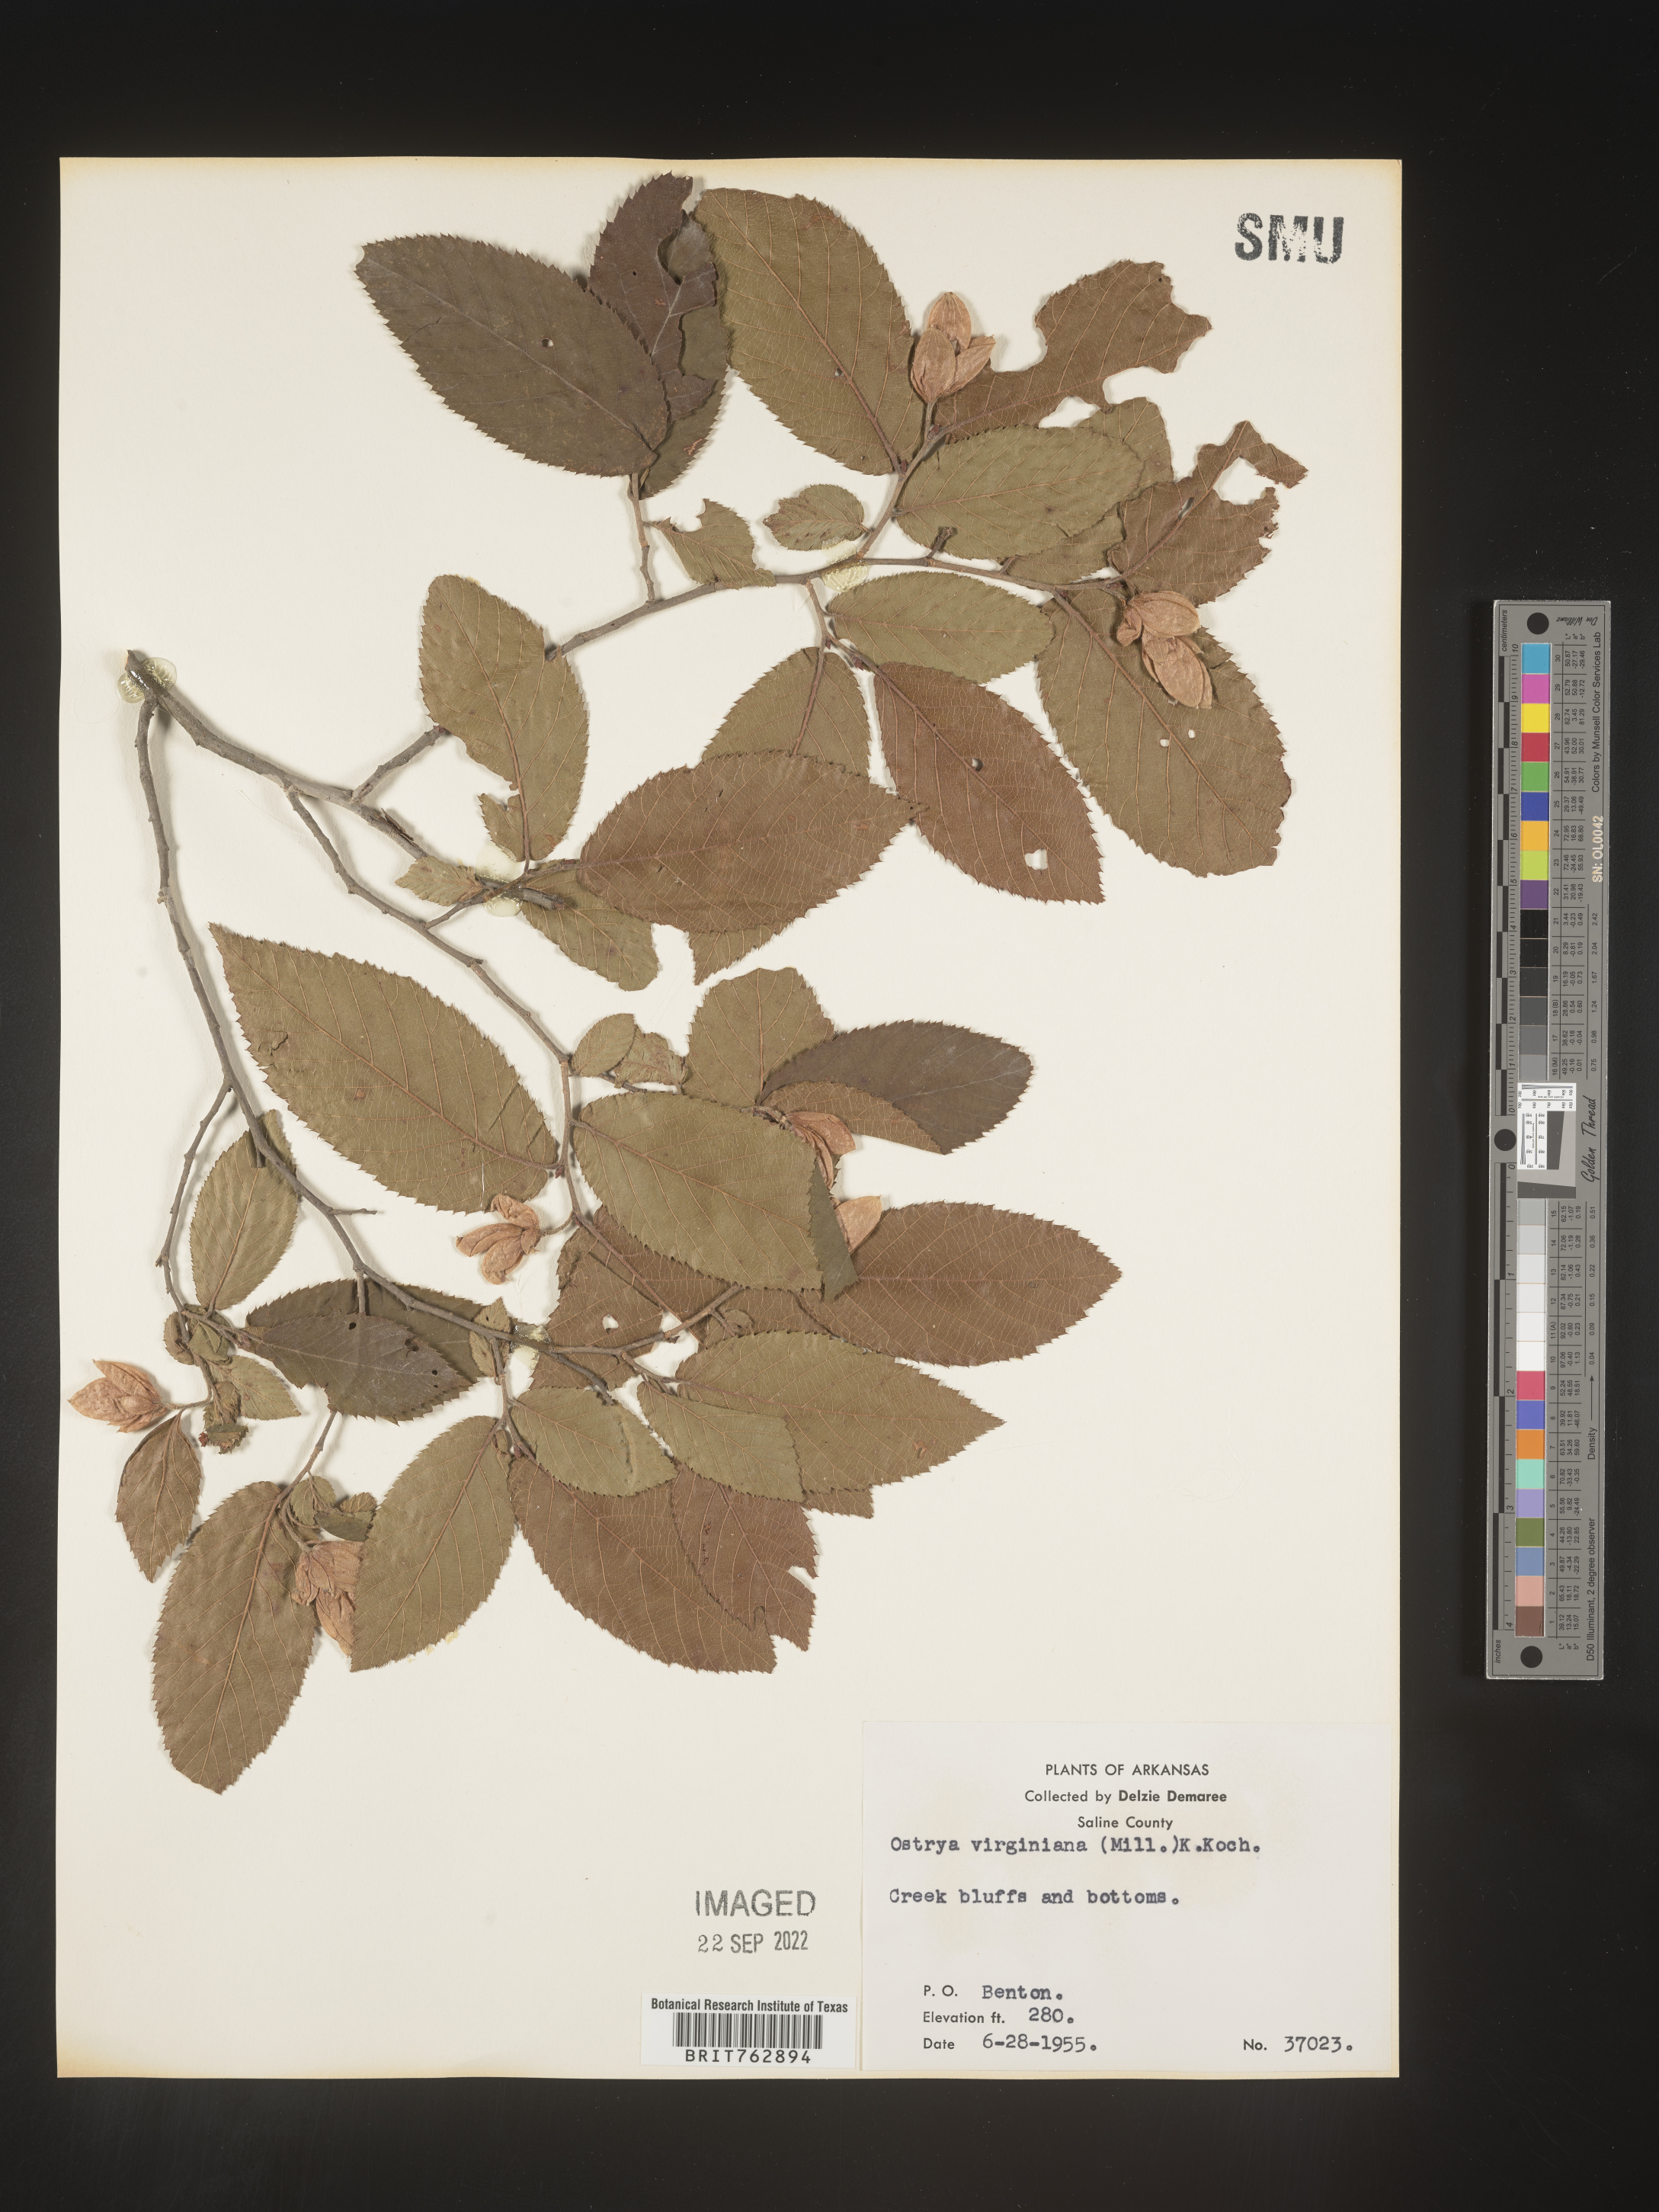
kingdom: Plantae
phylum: Tracheophyta
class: Magnoliopsida
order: Fagales
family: Betulaceae
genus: Ostrya
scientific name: Ostrya virginiana
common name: Ironwood
